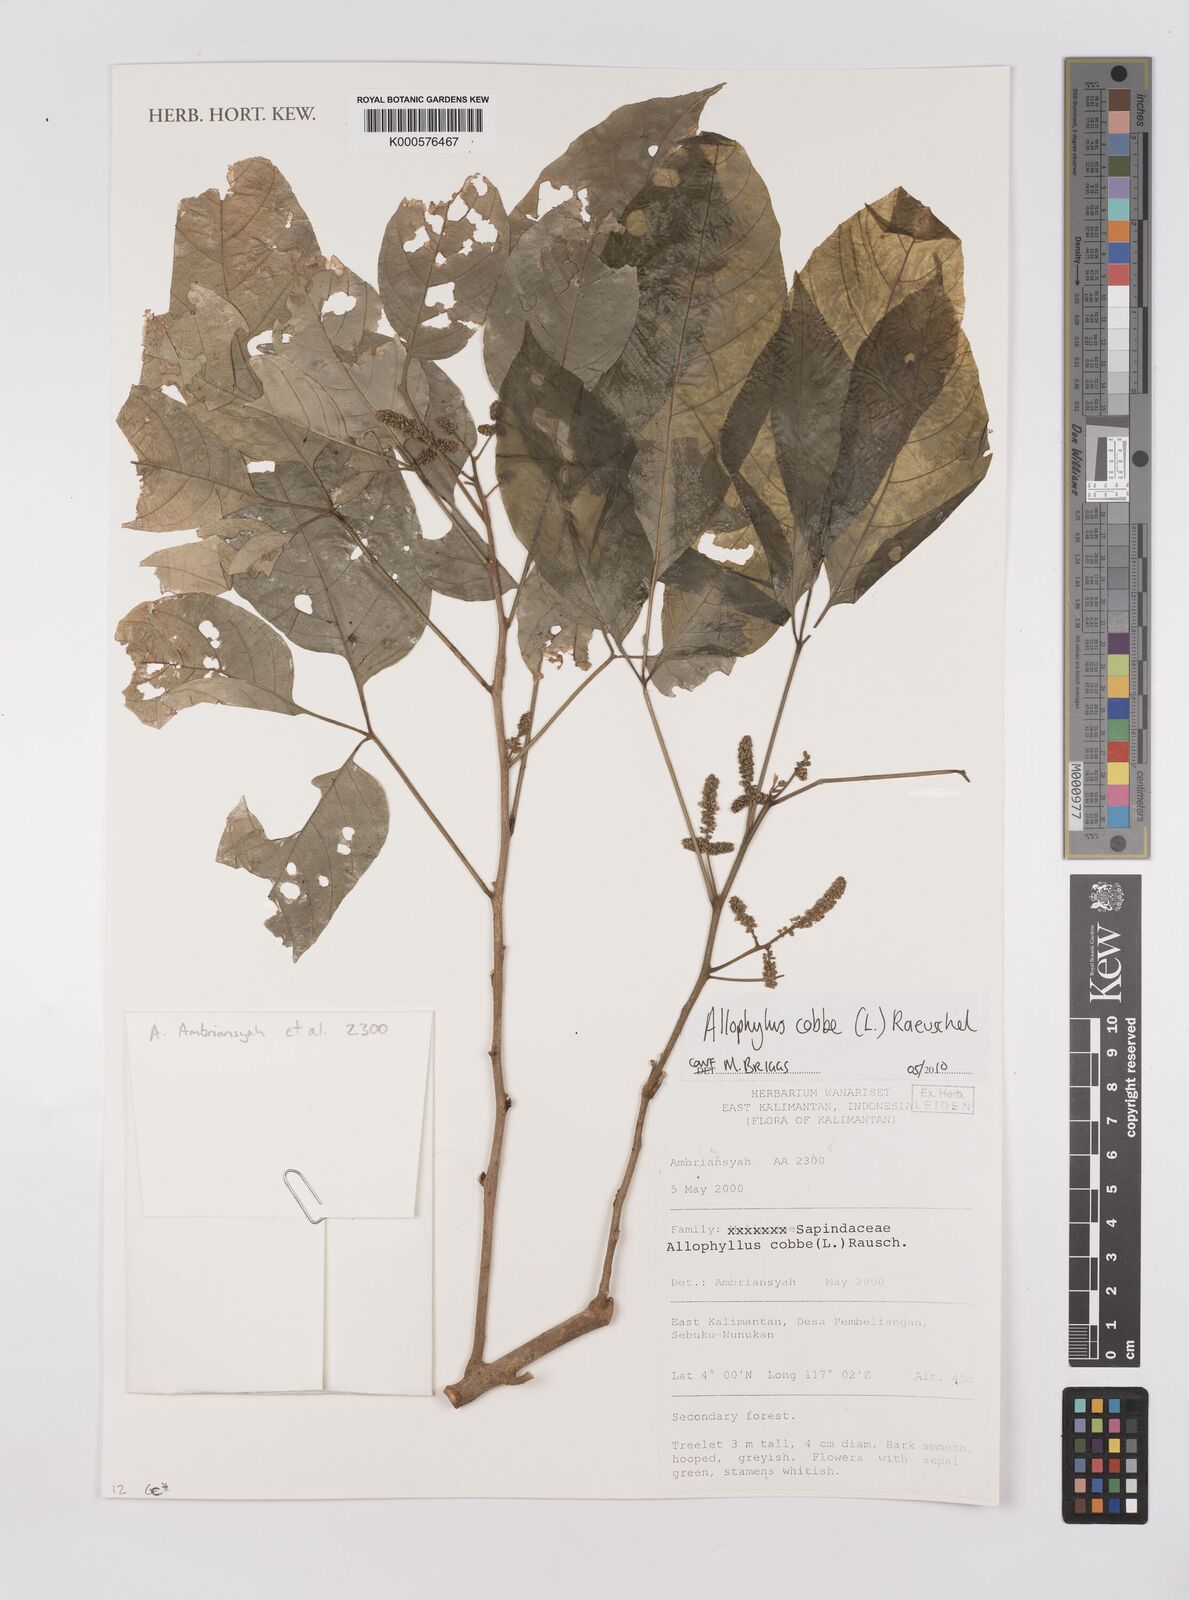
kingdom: Plantae
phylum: Tracheophyta
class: Magnoliopsida
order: Sapindales
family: Sapindaceae
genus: Allophylus
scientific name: Allophylus
